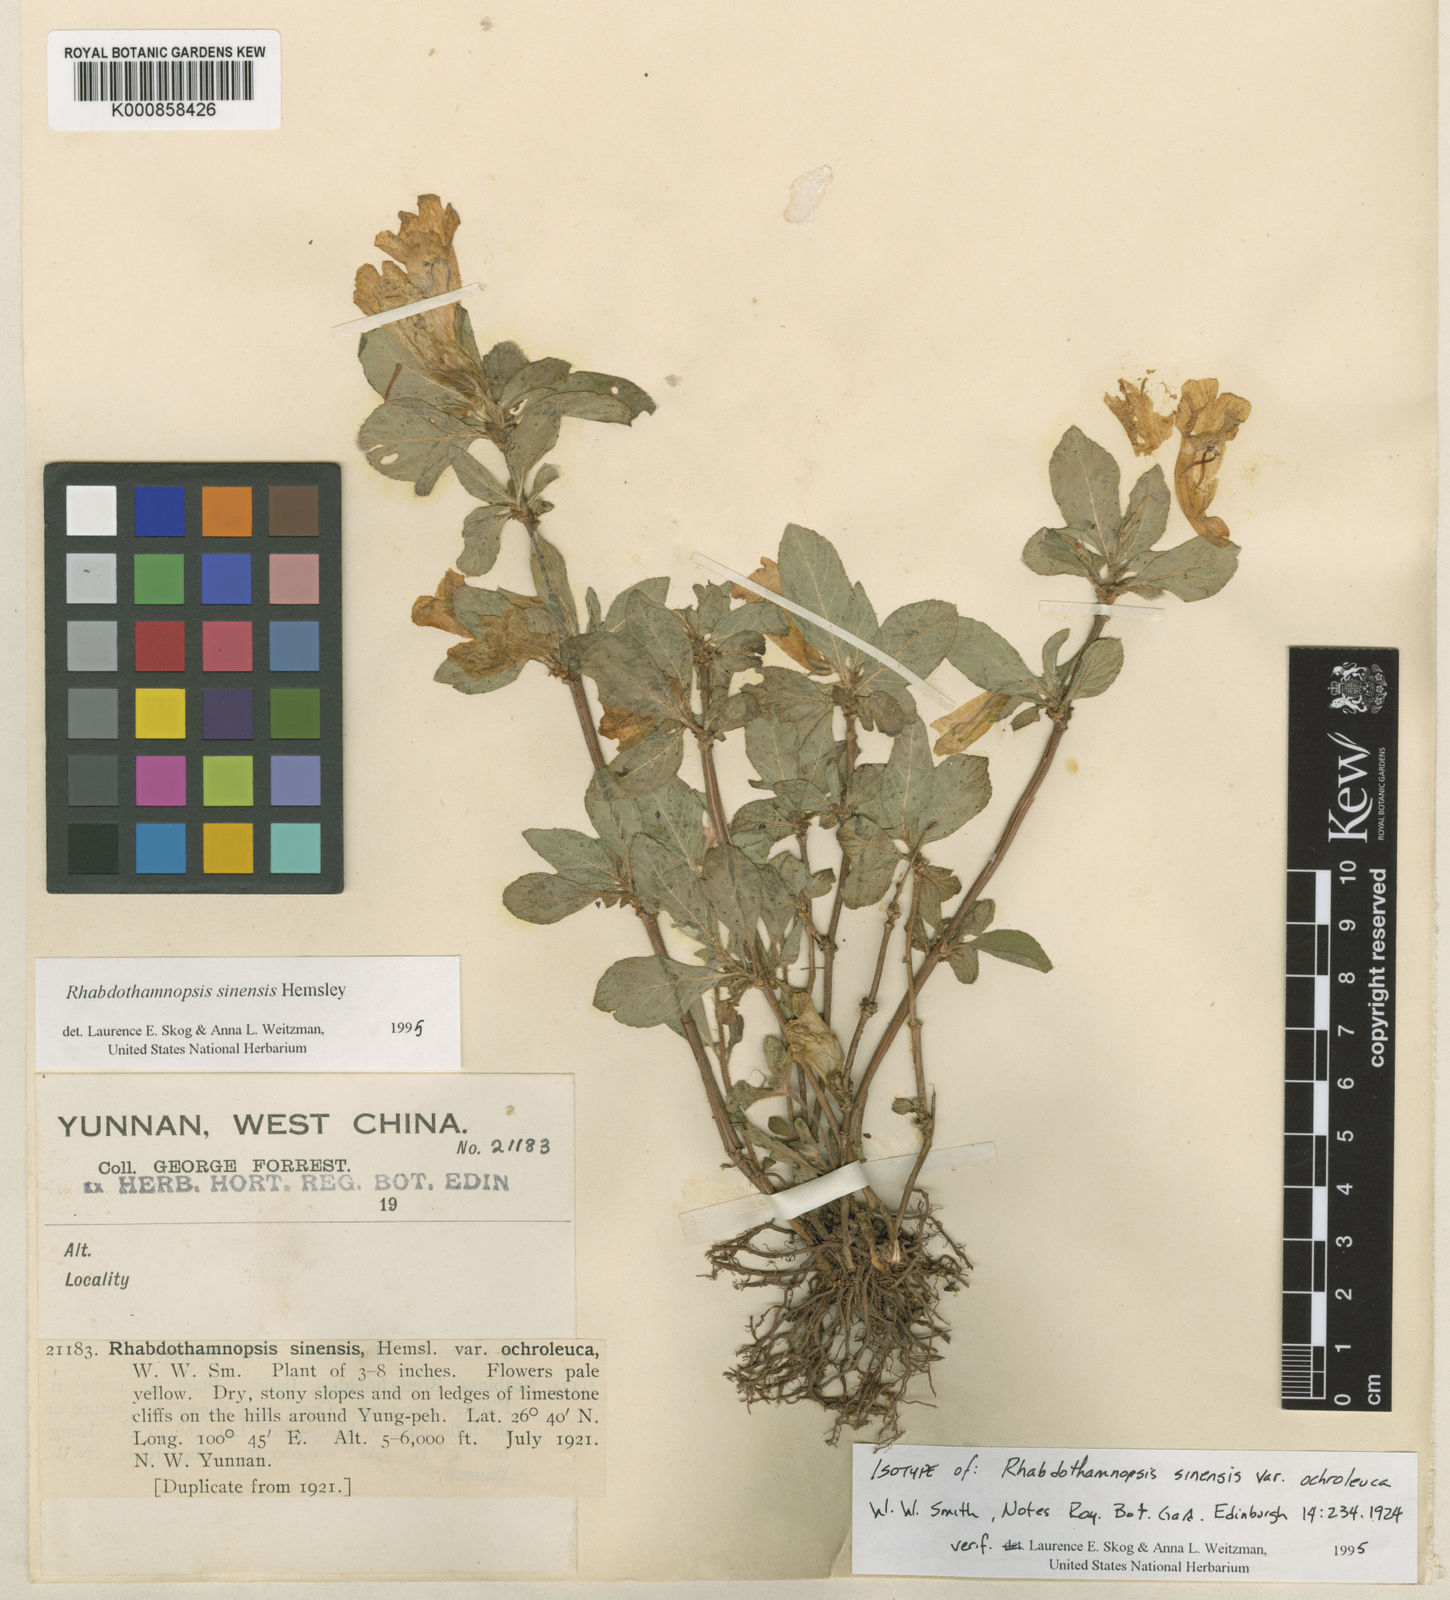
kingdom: Plantae
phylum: Tracheophyta
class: Magnoliopsida
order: Lamiales
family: Gesneriaceae
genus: Rhabdothamnopsis
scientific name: Rhabdothamnopsis sinensis
